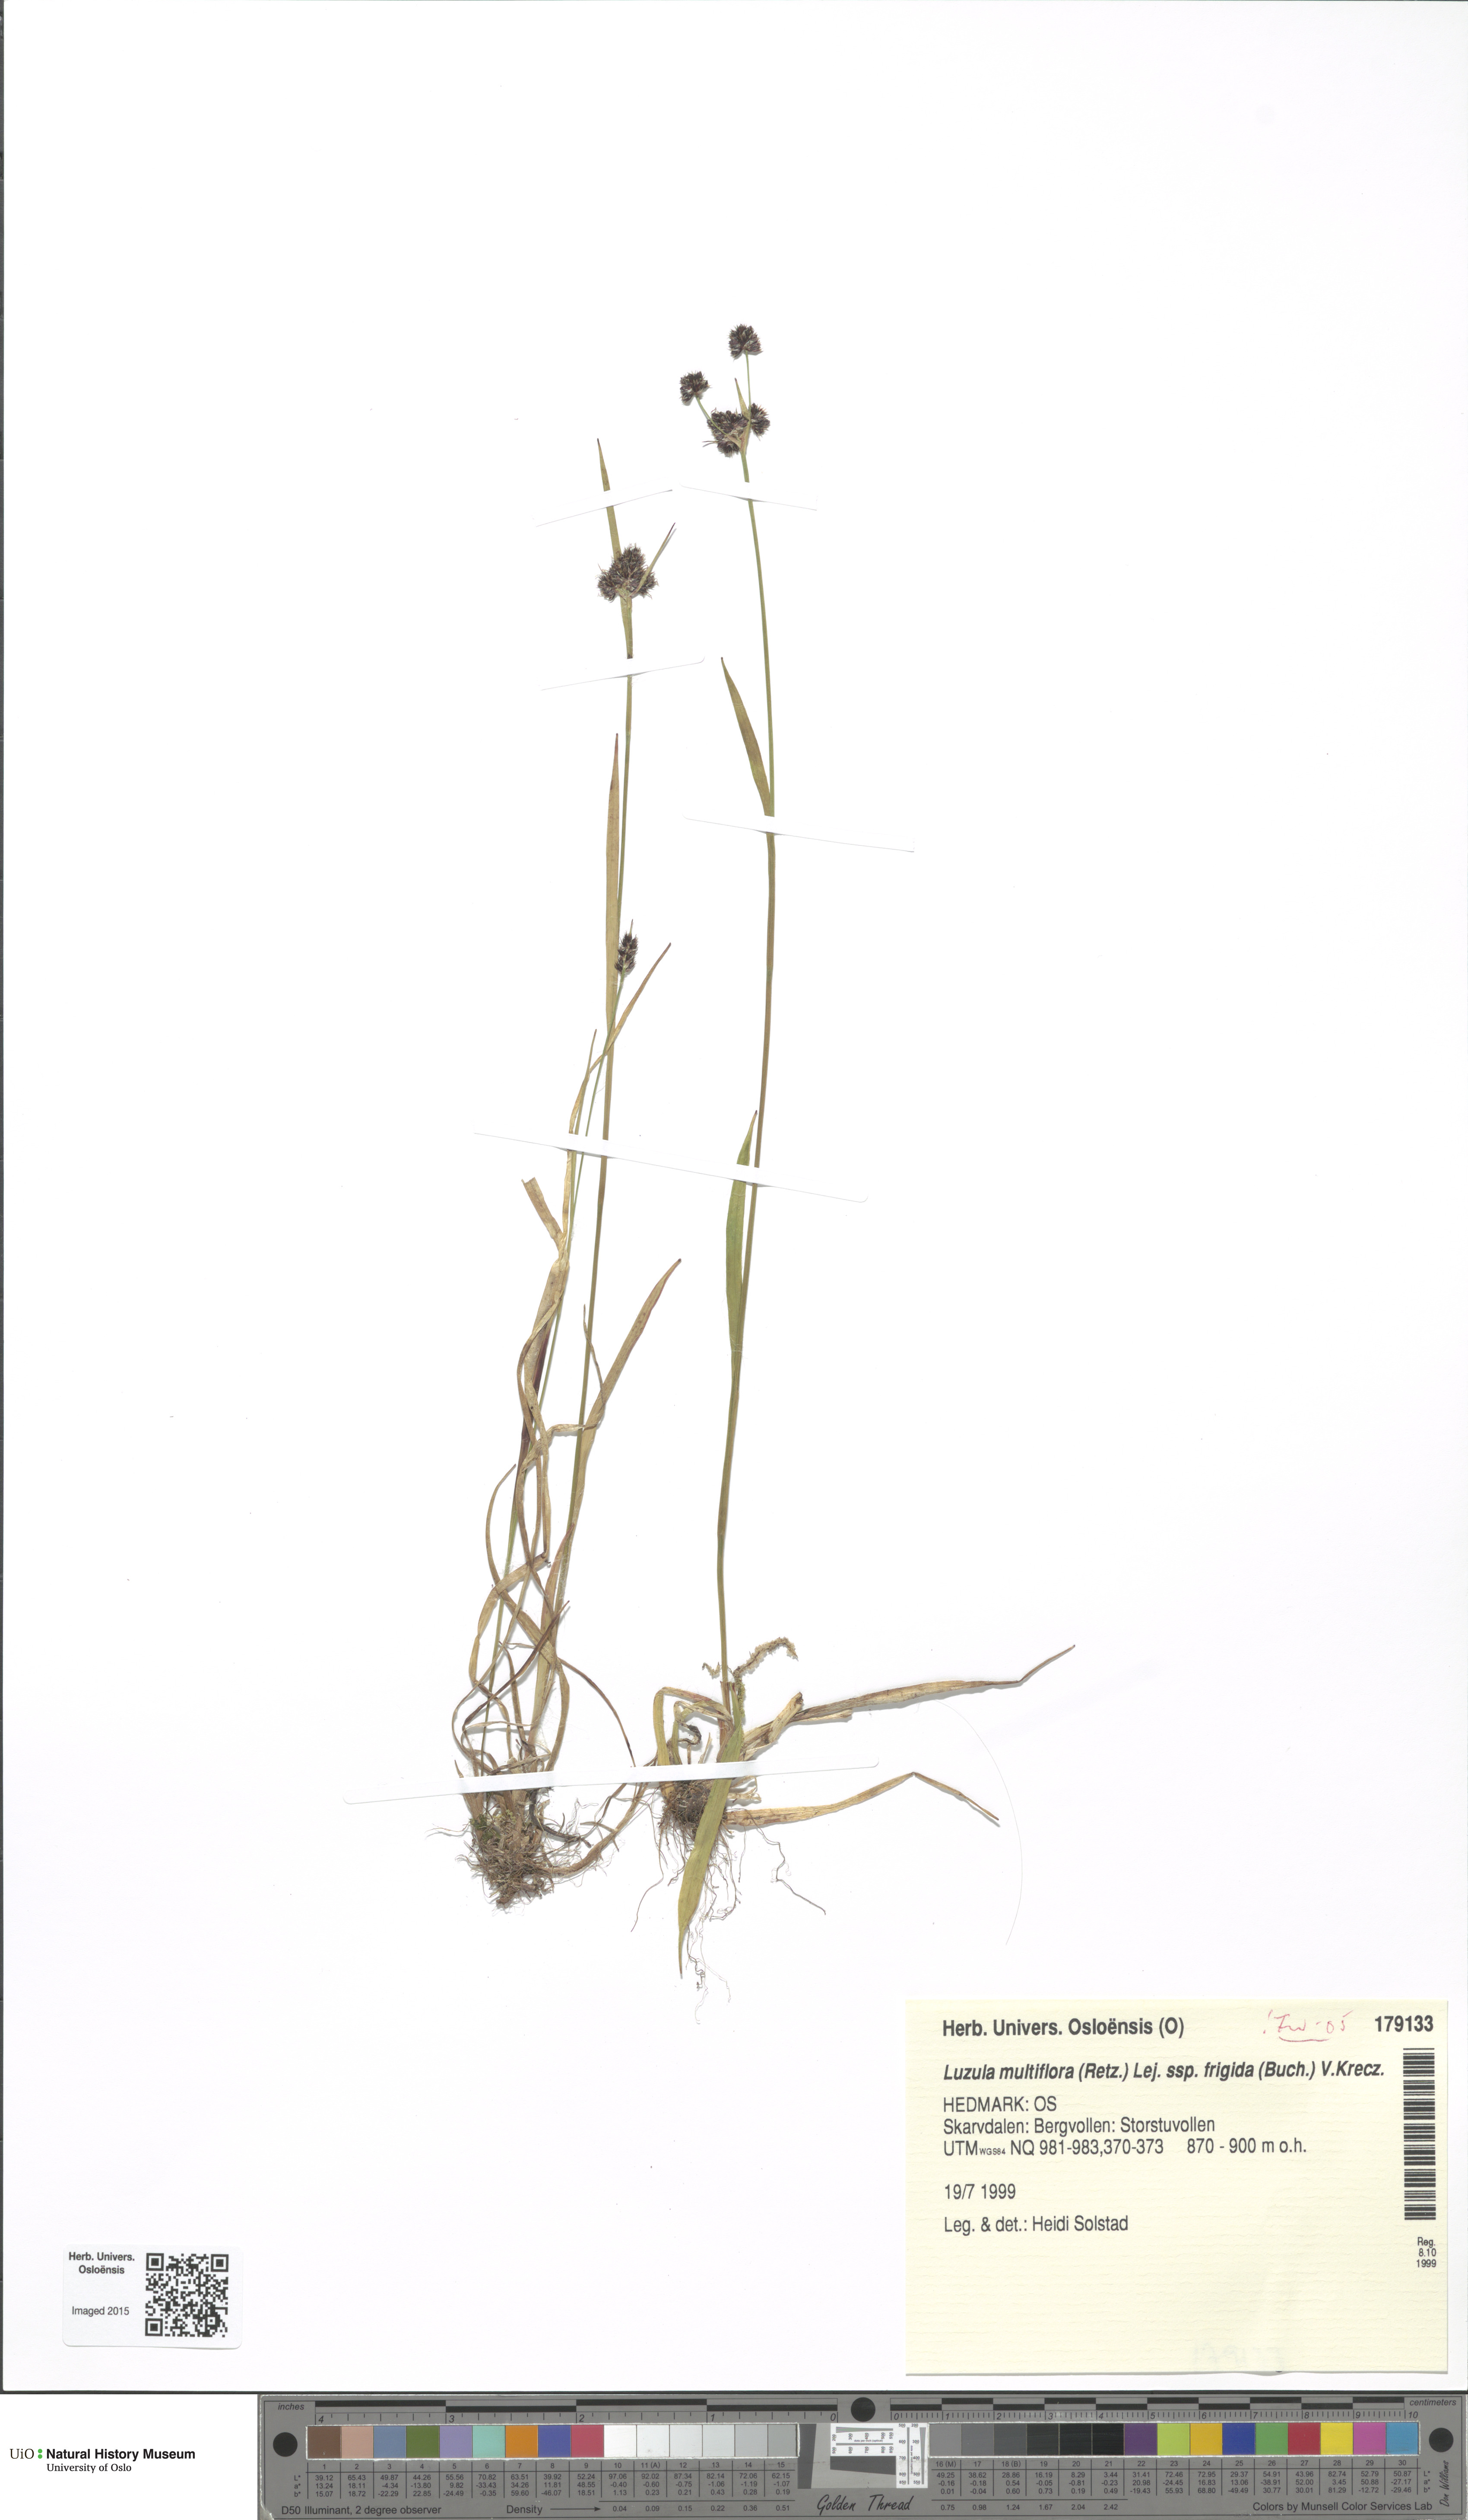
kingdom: Plantae
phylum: Tracheophyta
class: Liliopsida
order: Poales
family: Juncaceae
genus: Luzula
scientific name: Luzula multiflora
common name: Heath wood-rush
